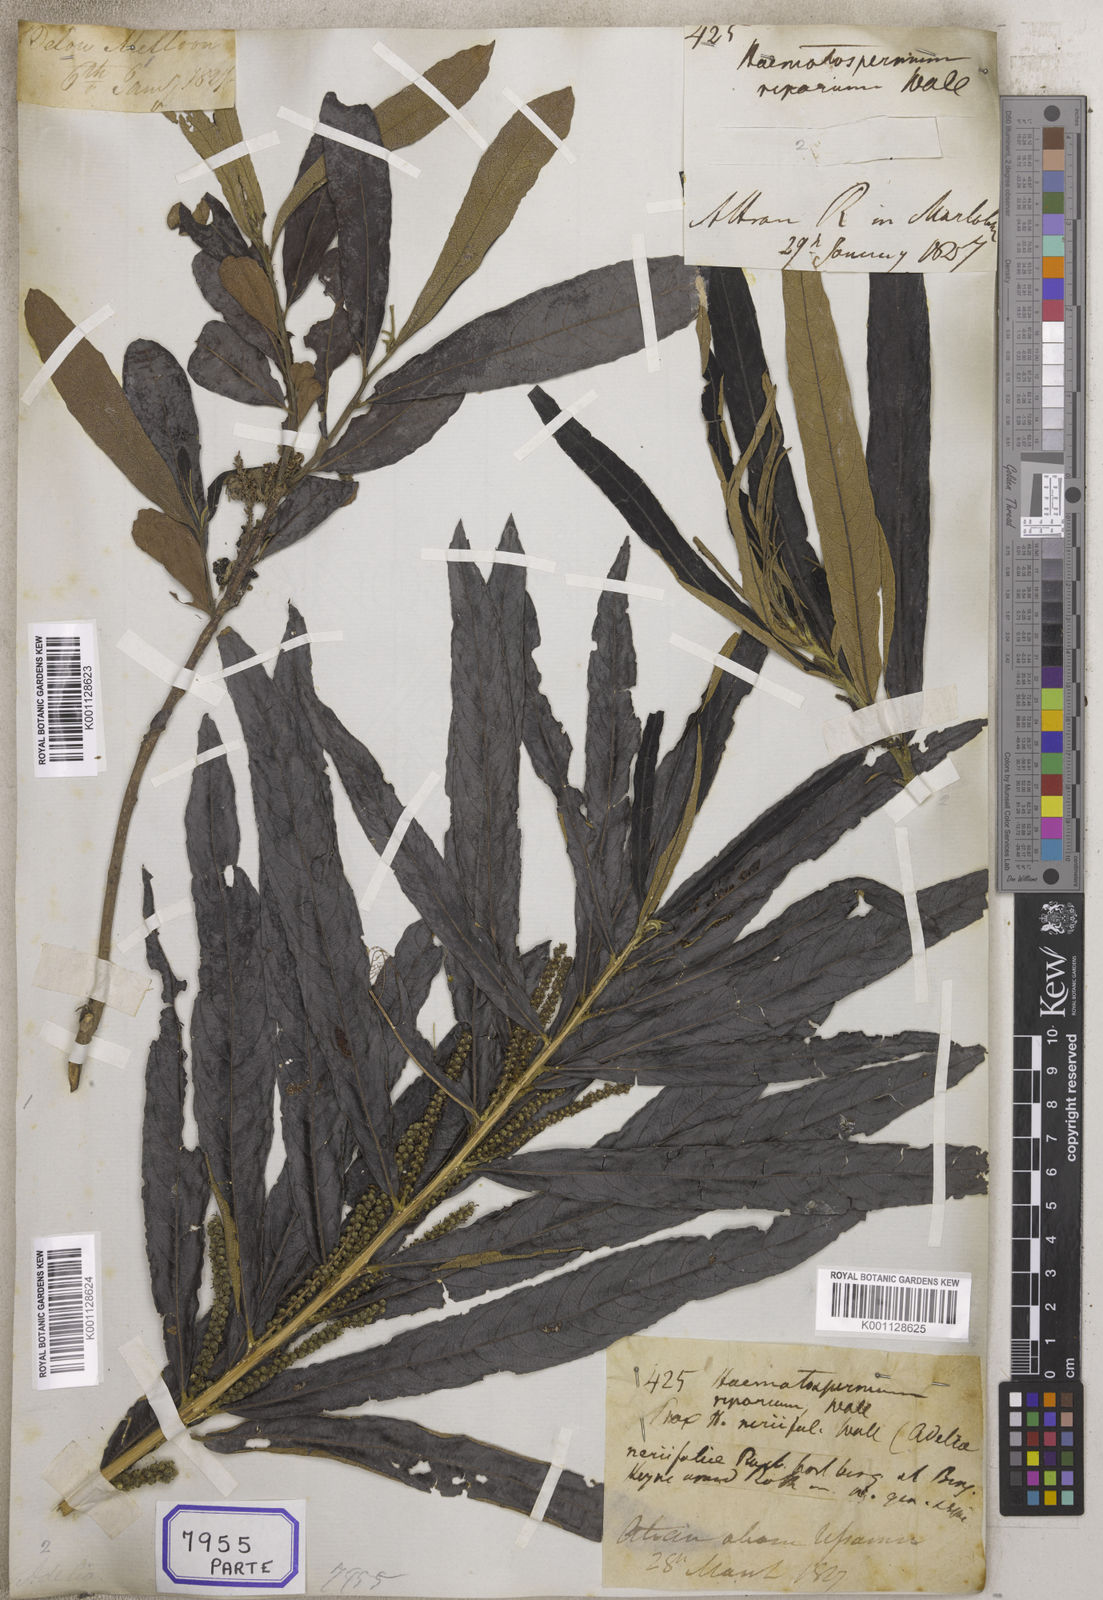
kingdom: Plantae
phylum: Tracheophyta
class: Magnoliopsida
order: Malpighiales
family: Euphorbiaceae
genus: Homonoia
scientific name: Homonoia
